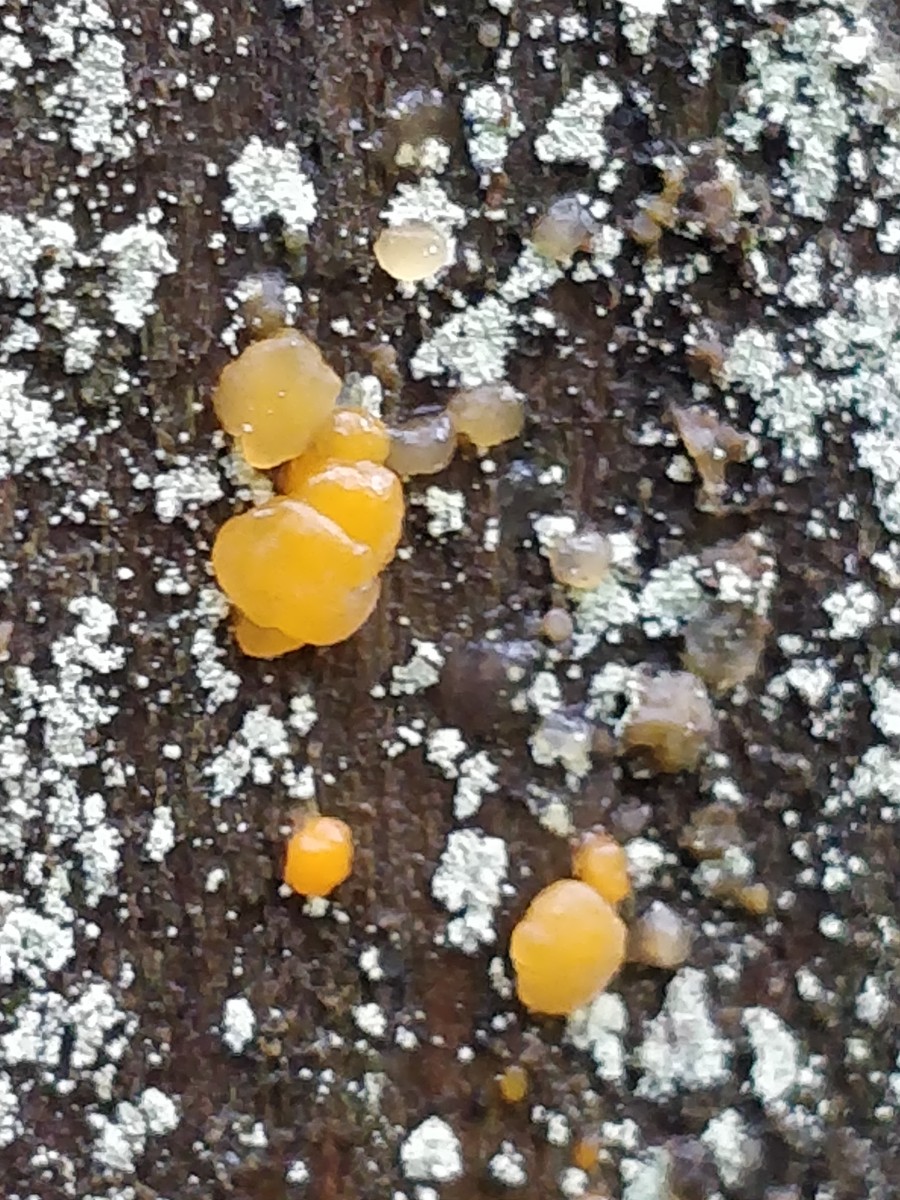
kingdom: Fungi
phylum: Basidiomycota
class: Dacrymycetes
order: Dacrymycetales
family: Dacrymycetaceae
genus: Dacrymyces
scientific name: Dacrymyces stillatus
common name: almindelig tåresvamp
